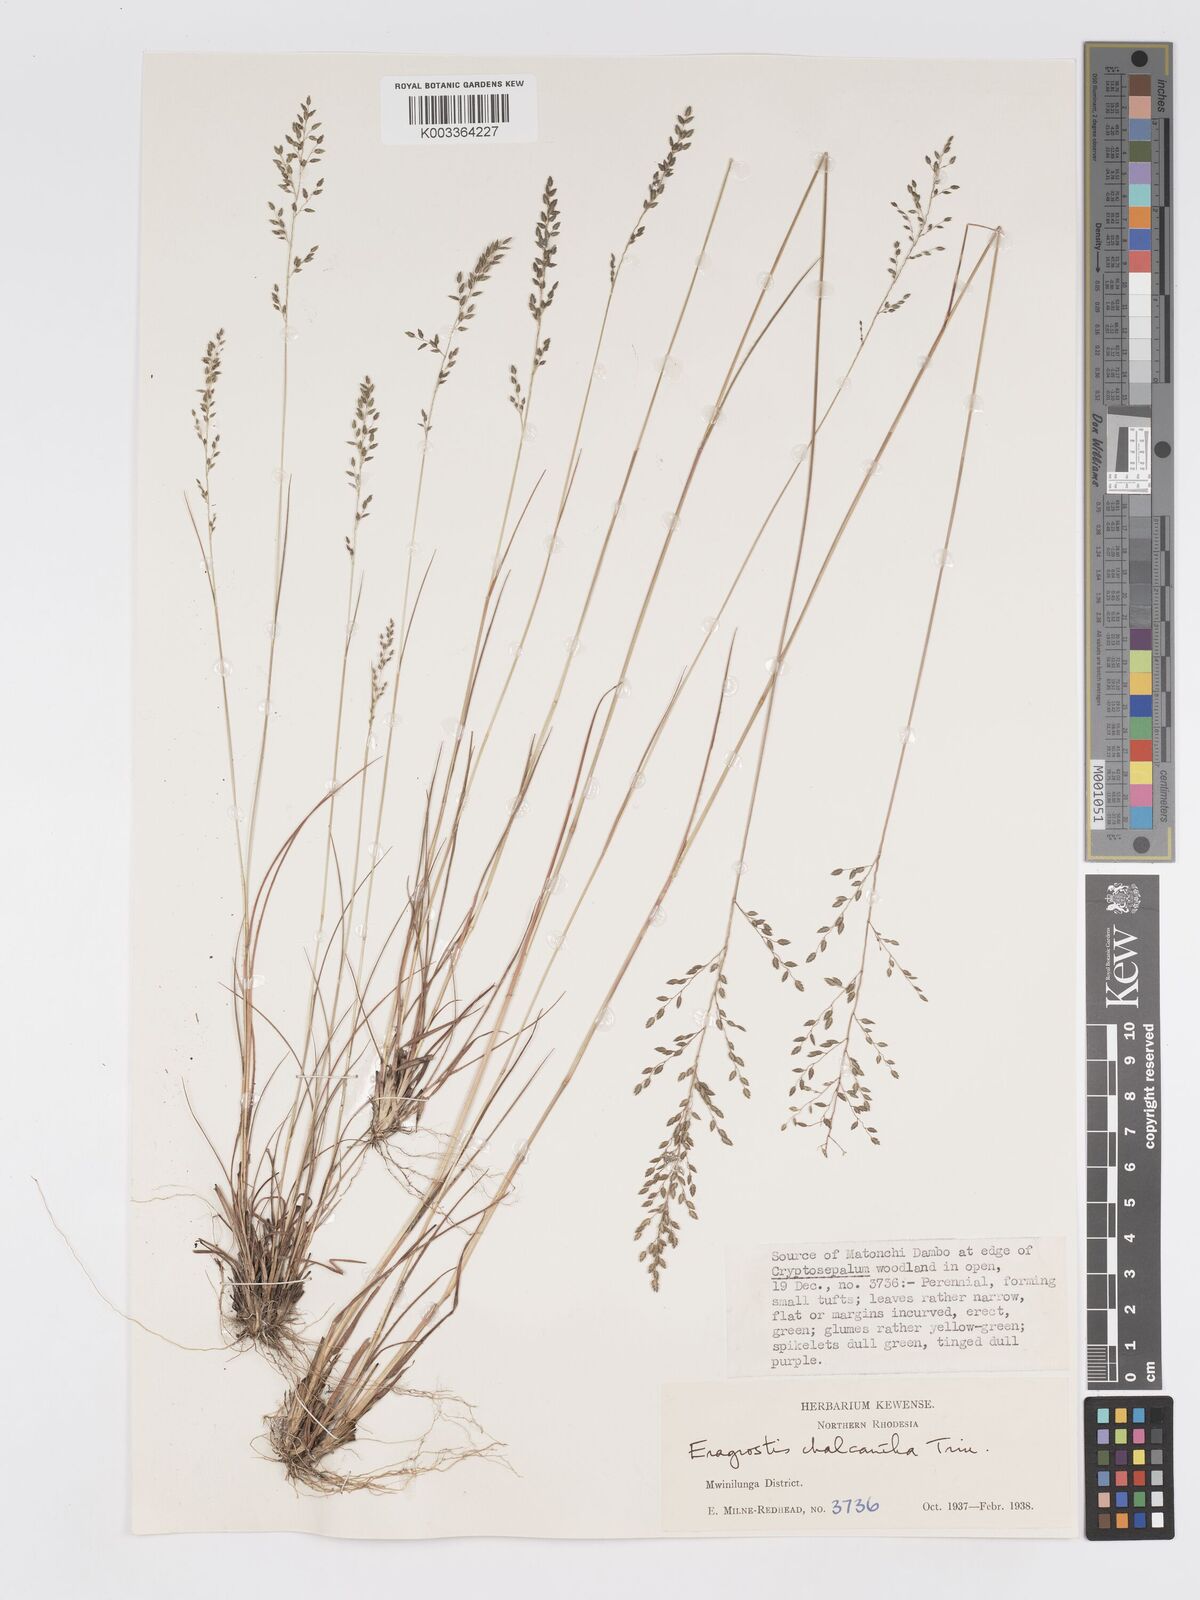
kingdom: Plantae
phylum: Tracheophyta
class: Liliopsida
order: Poales
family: Poaceae
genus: Eragrostis
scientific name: Eragrostis racemosa
